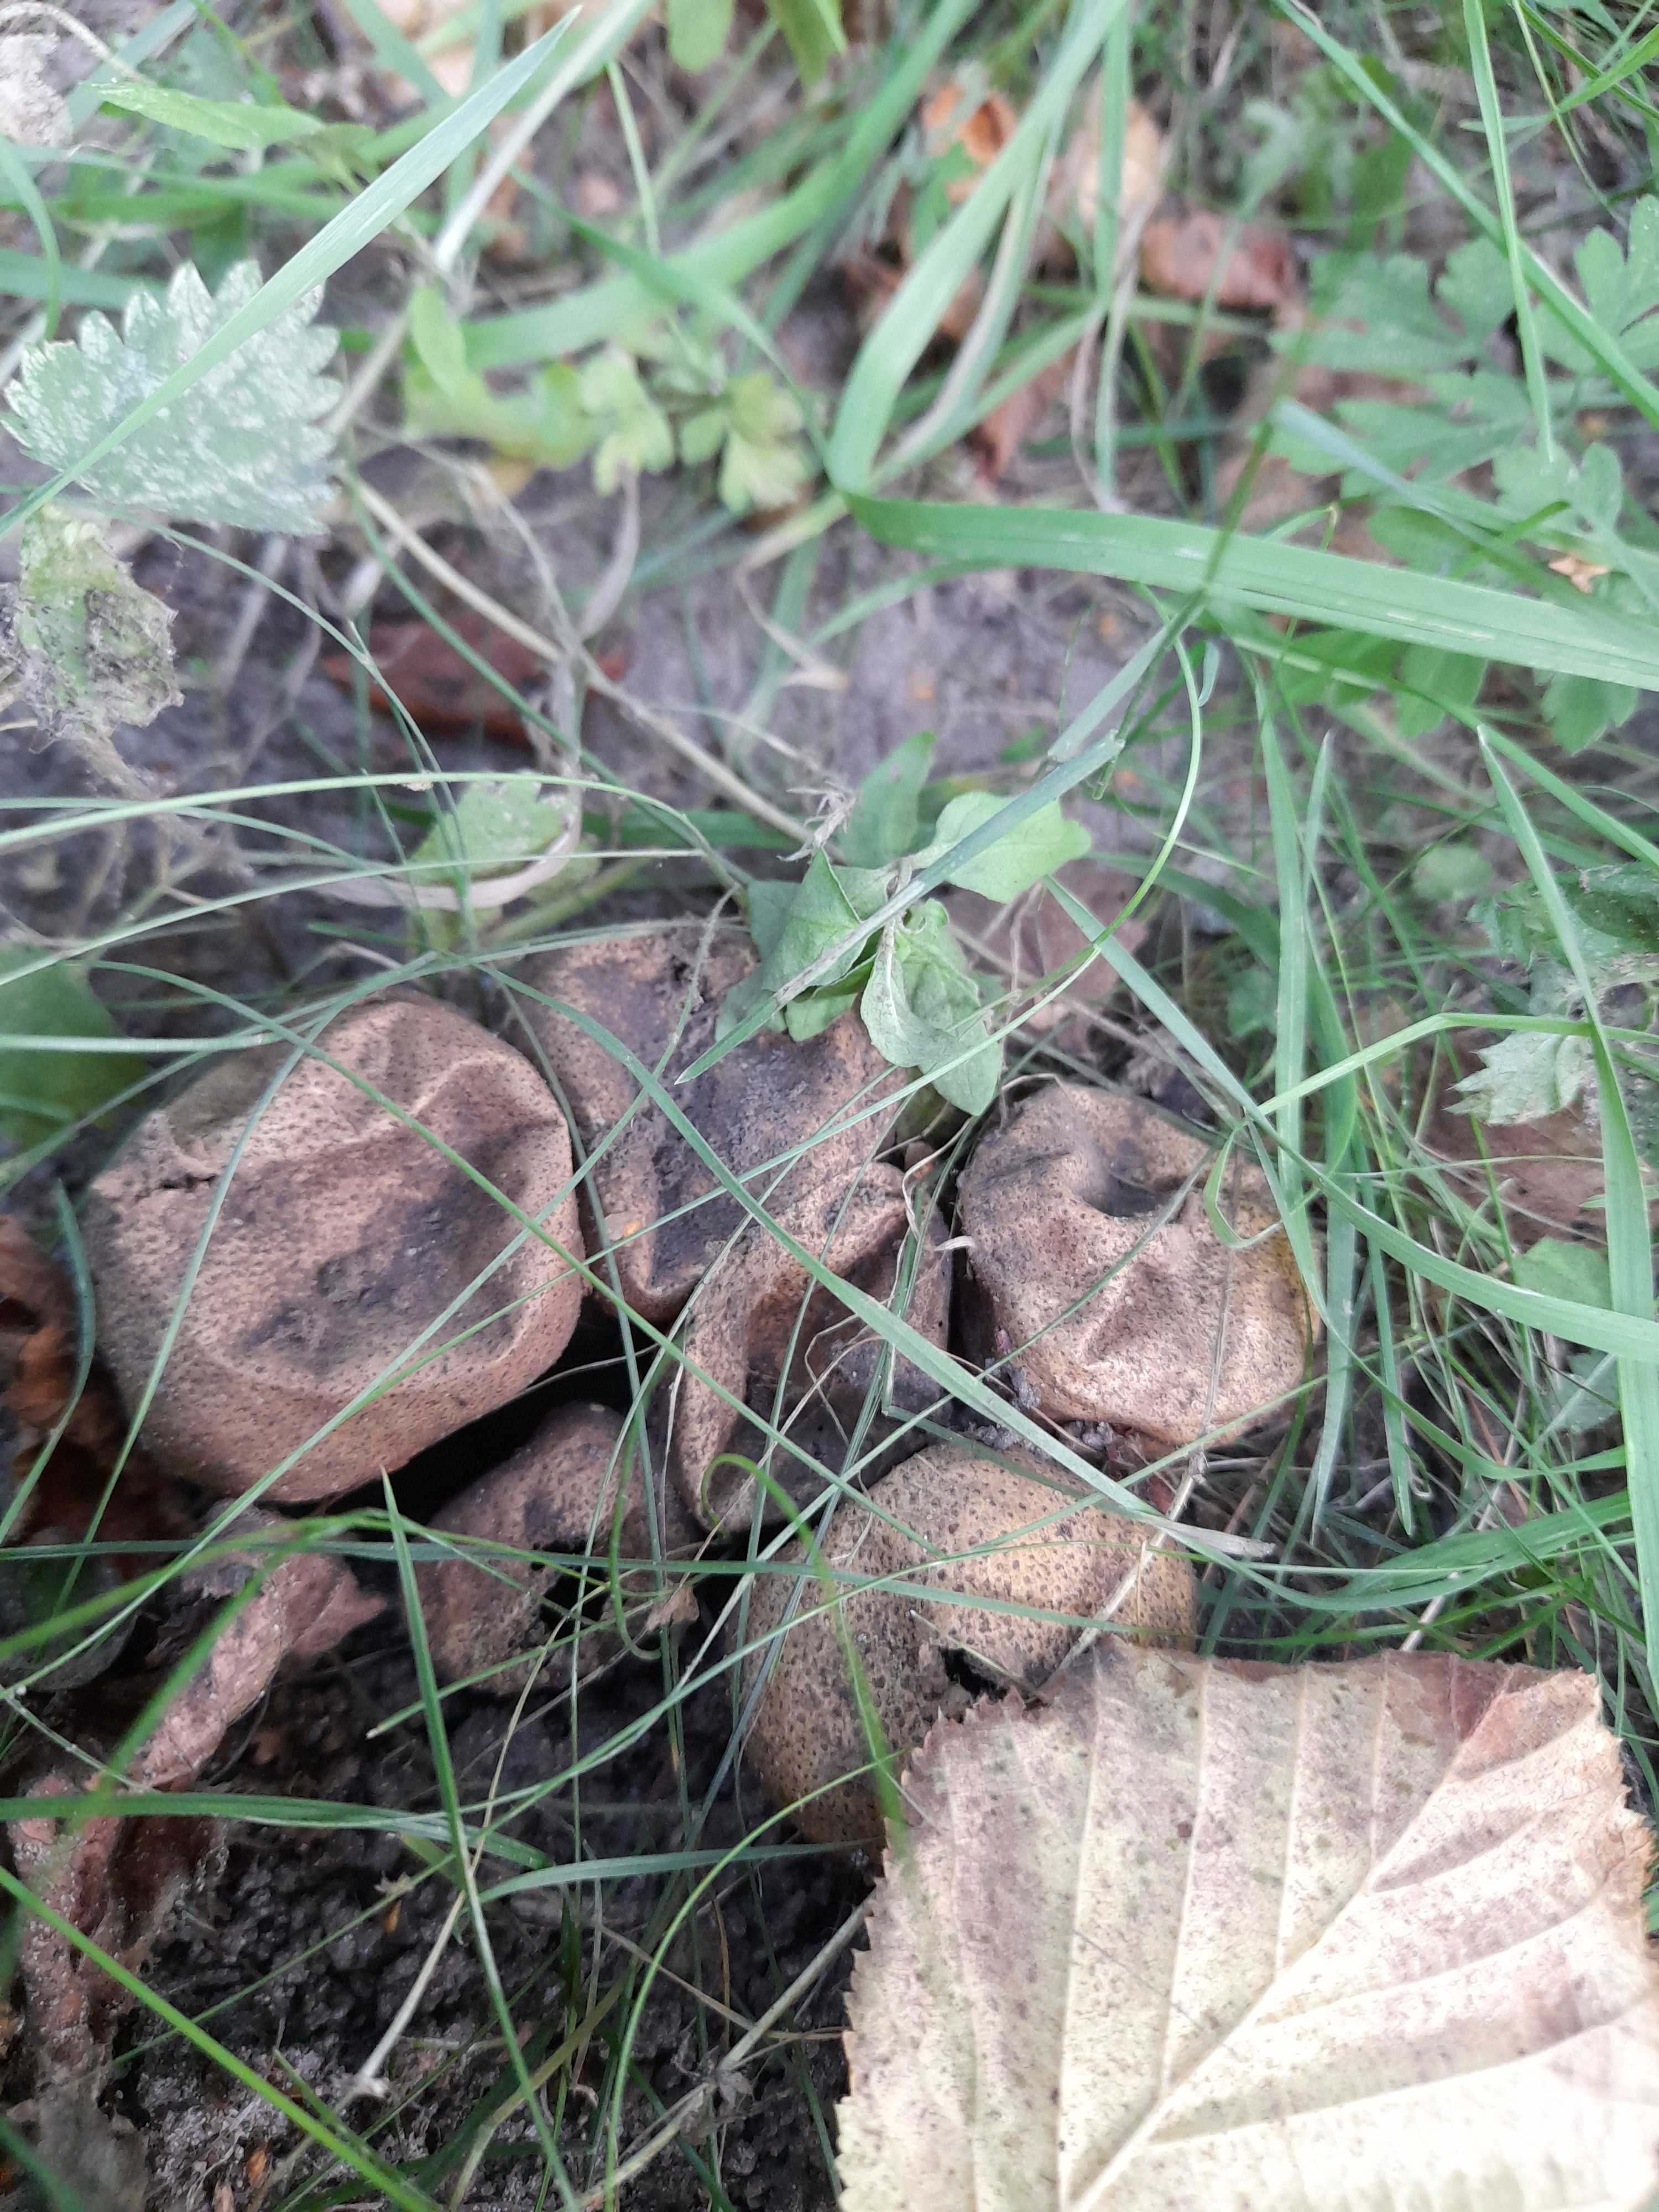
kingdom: Fungi
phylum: Basidiomycota
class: Agaricomycetes
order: Boletales
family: Sclerodermataceae
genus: Scleroderma
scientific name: Scleroderma areolatum
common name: plettet bruskbold
